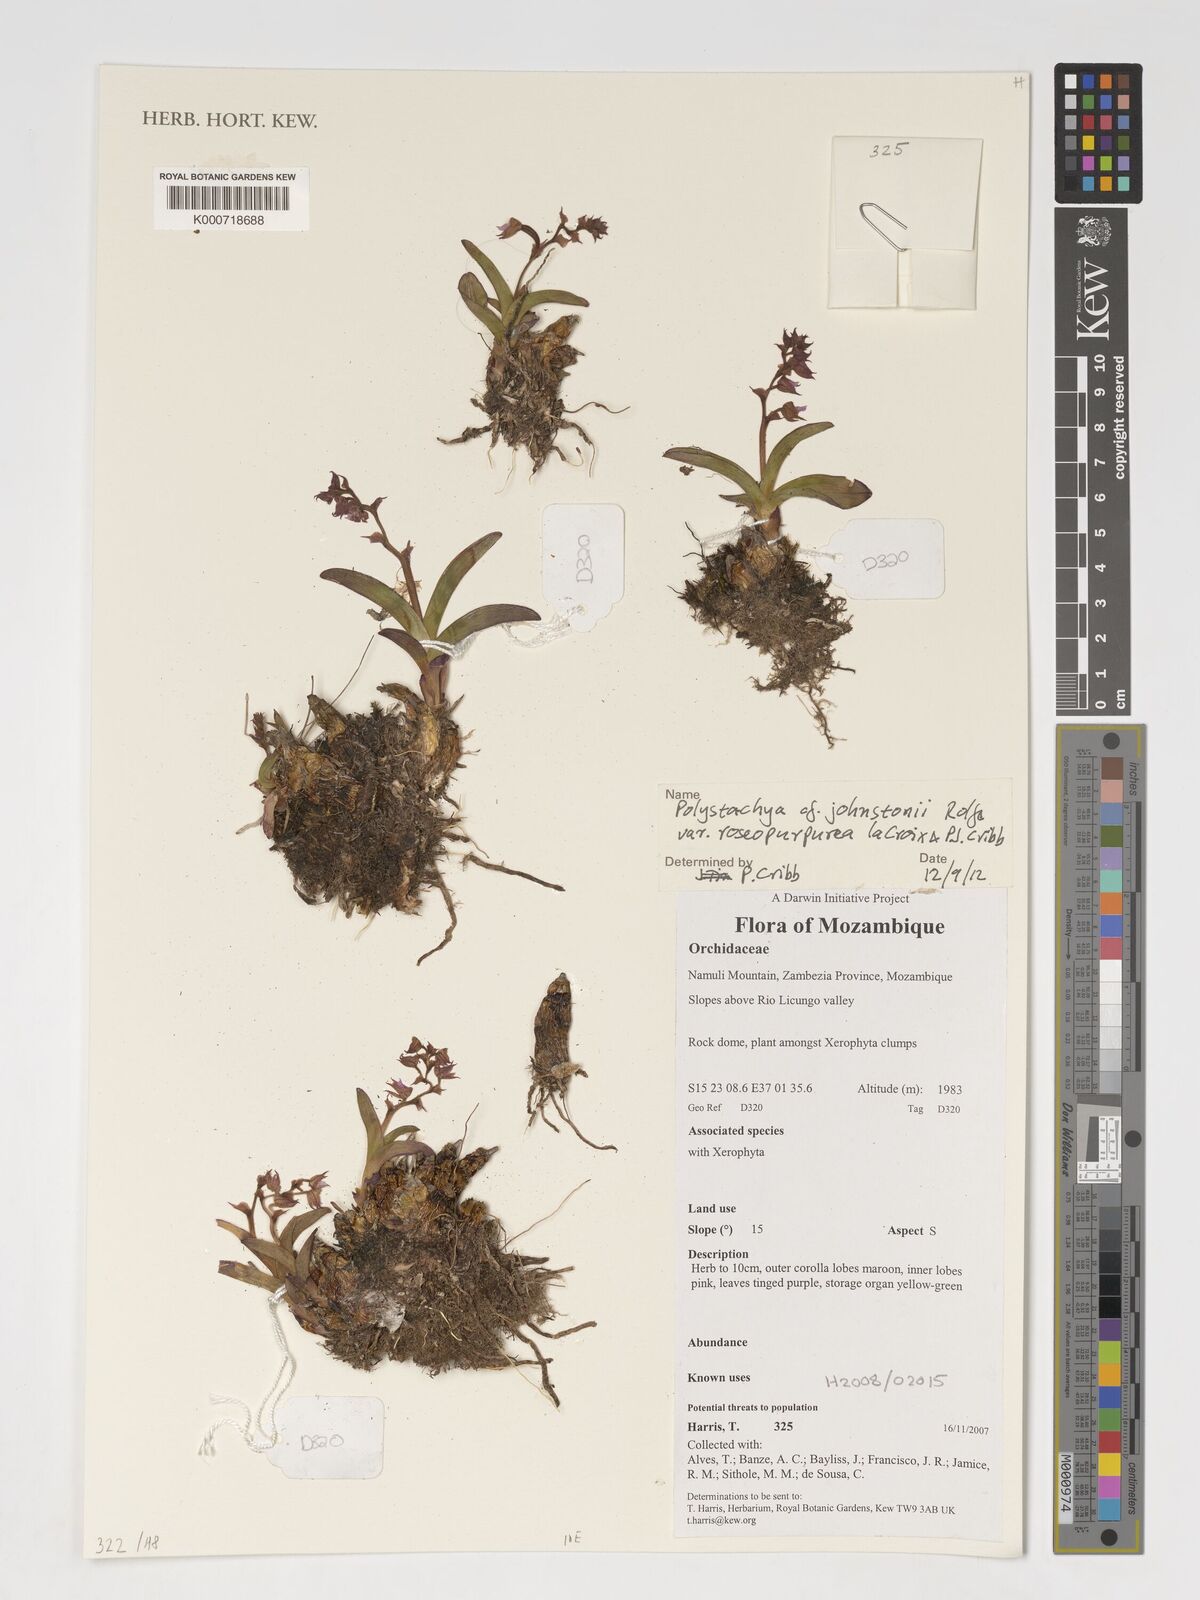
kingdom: Plantae
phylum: Tracheophyta
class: Liliopsida
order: Asparagales
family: Orchidaceae
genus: Polystachya
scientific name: Polystachya johnstonii
